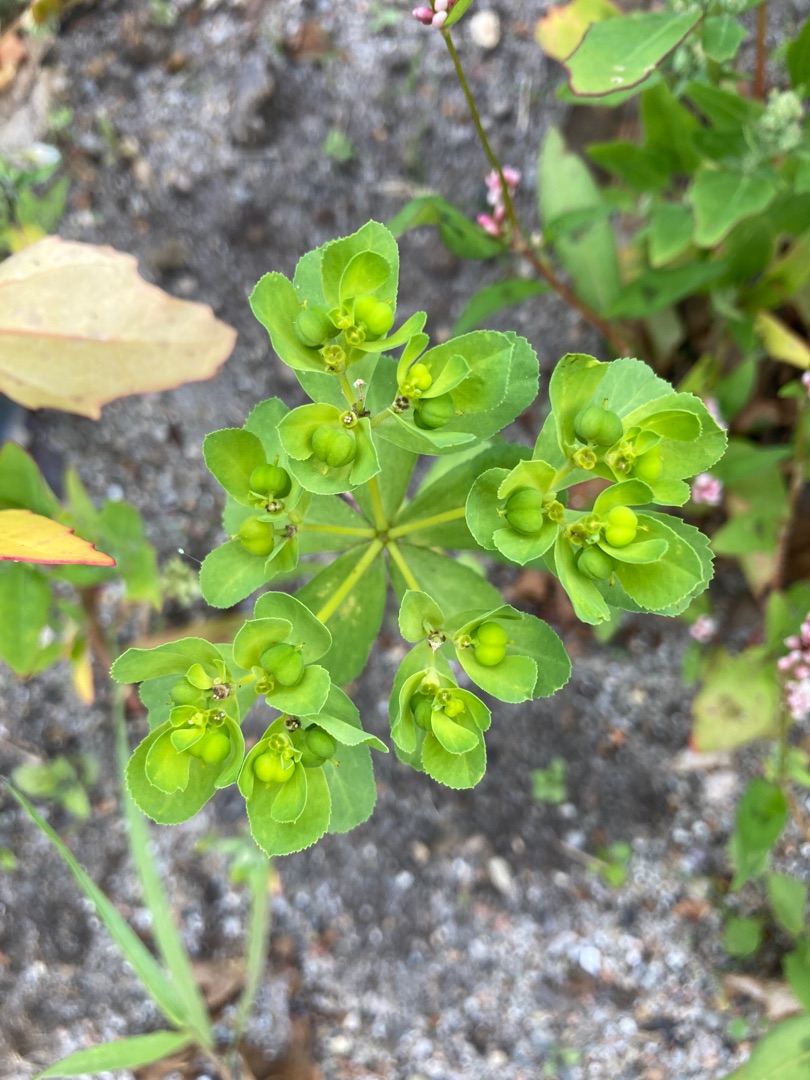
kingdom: Plantae
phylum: Tracheophyta
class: Magnoliopsida
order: Malpighiales
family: Euphorbiaceae
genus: Euphorbia
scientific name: Euphorbia helioscopia
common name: Skærm-vortemælk
